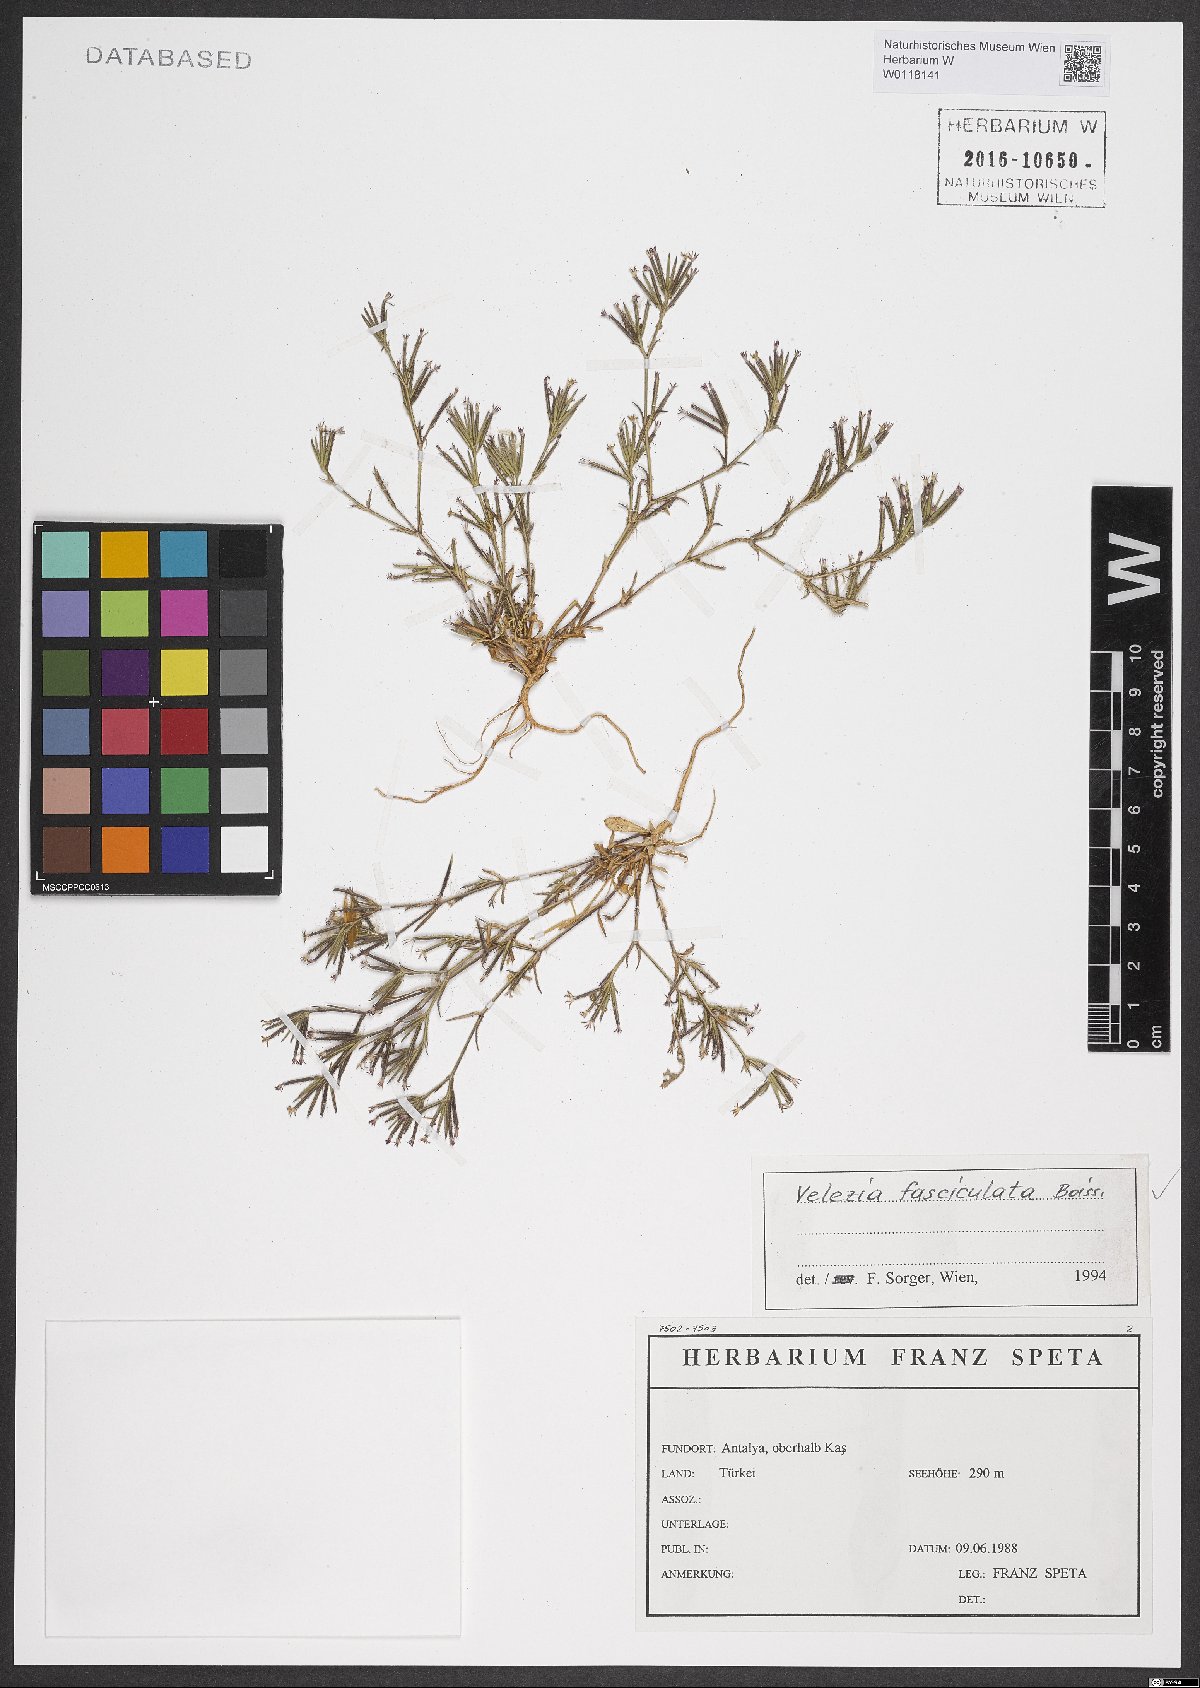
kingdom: Plantae
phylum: Tracheophyta
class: Magnoliopsida
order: Caryophyllales
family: Caryophyllaceae
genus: Dianthus
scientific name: Dianthus fasciculatus
